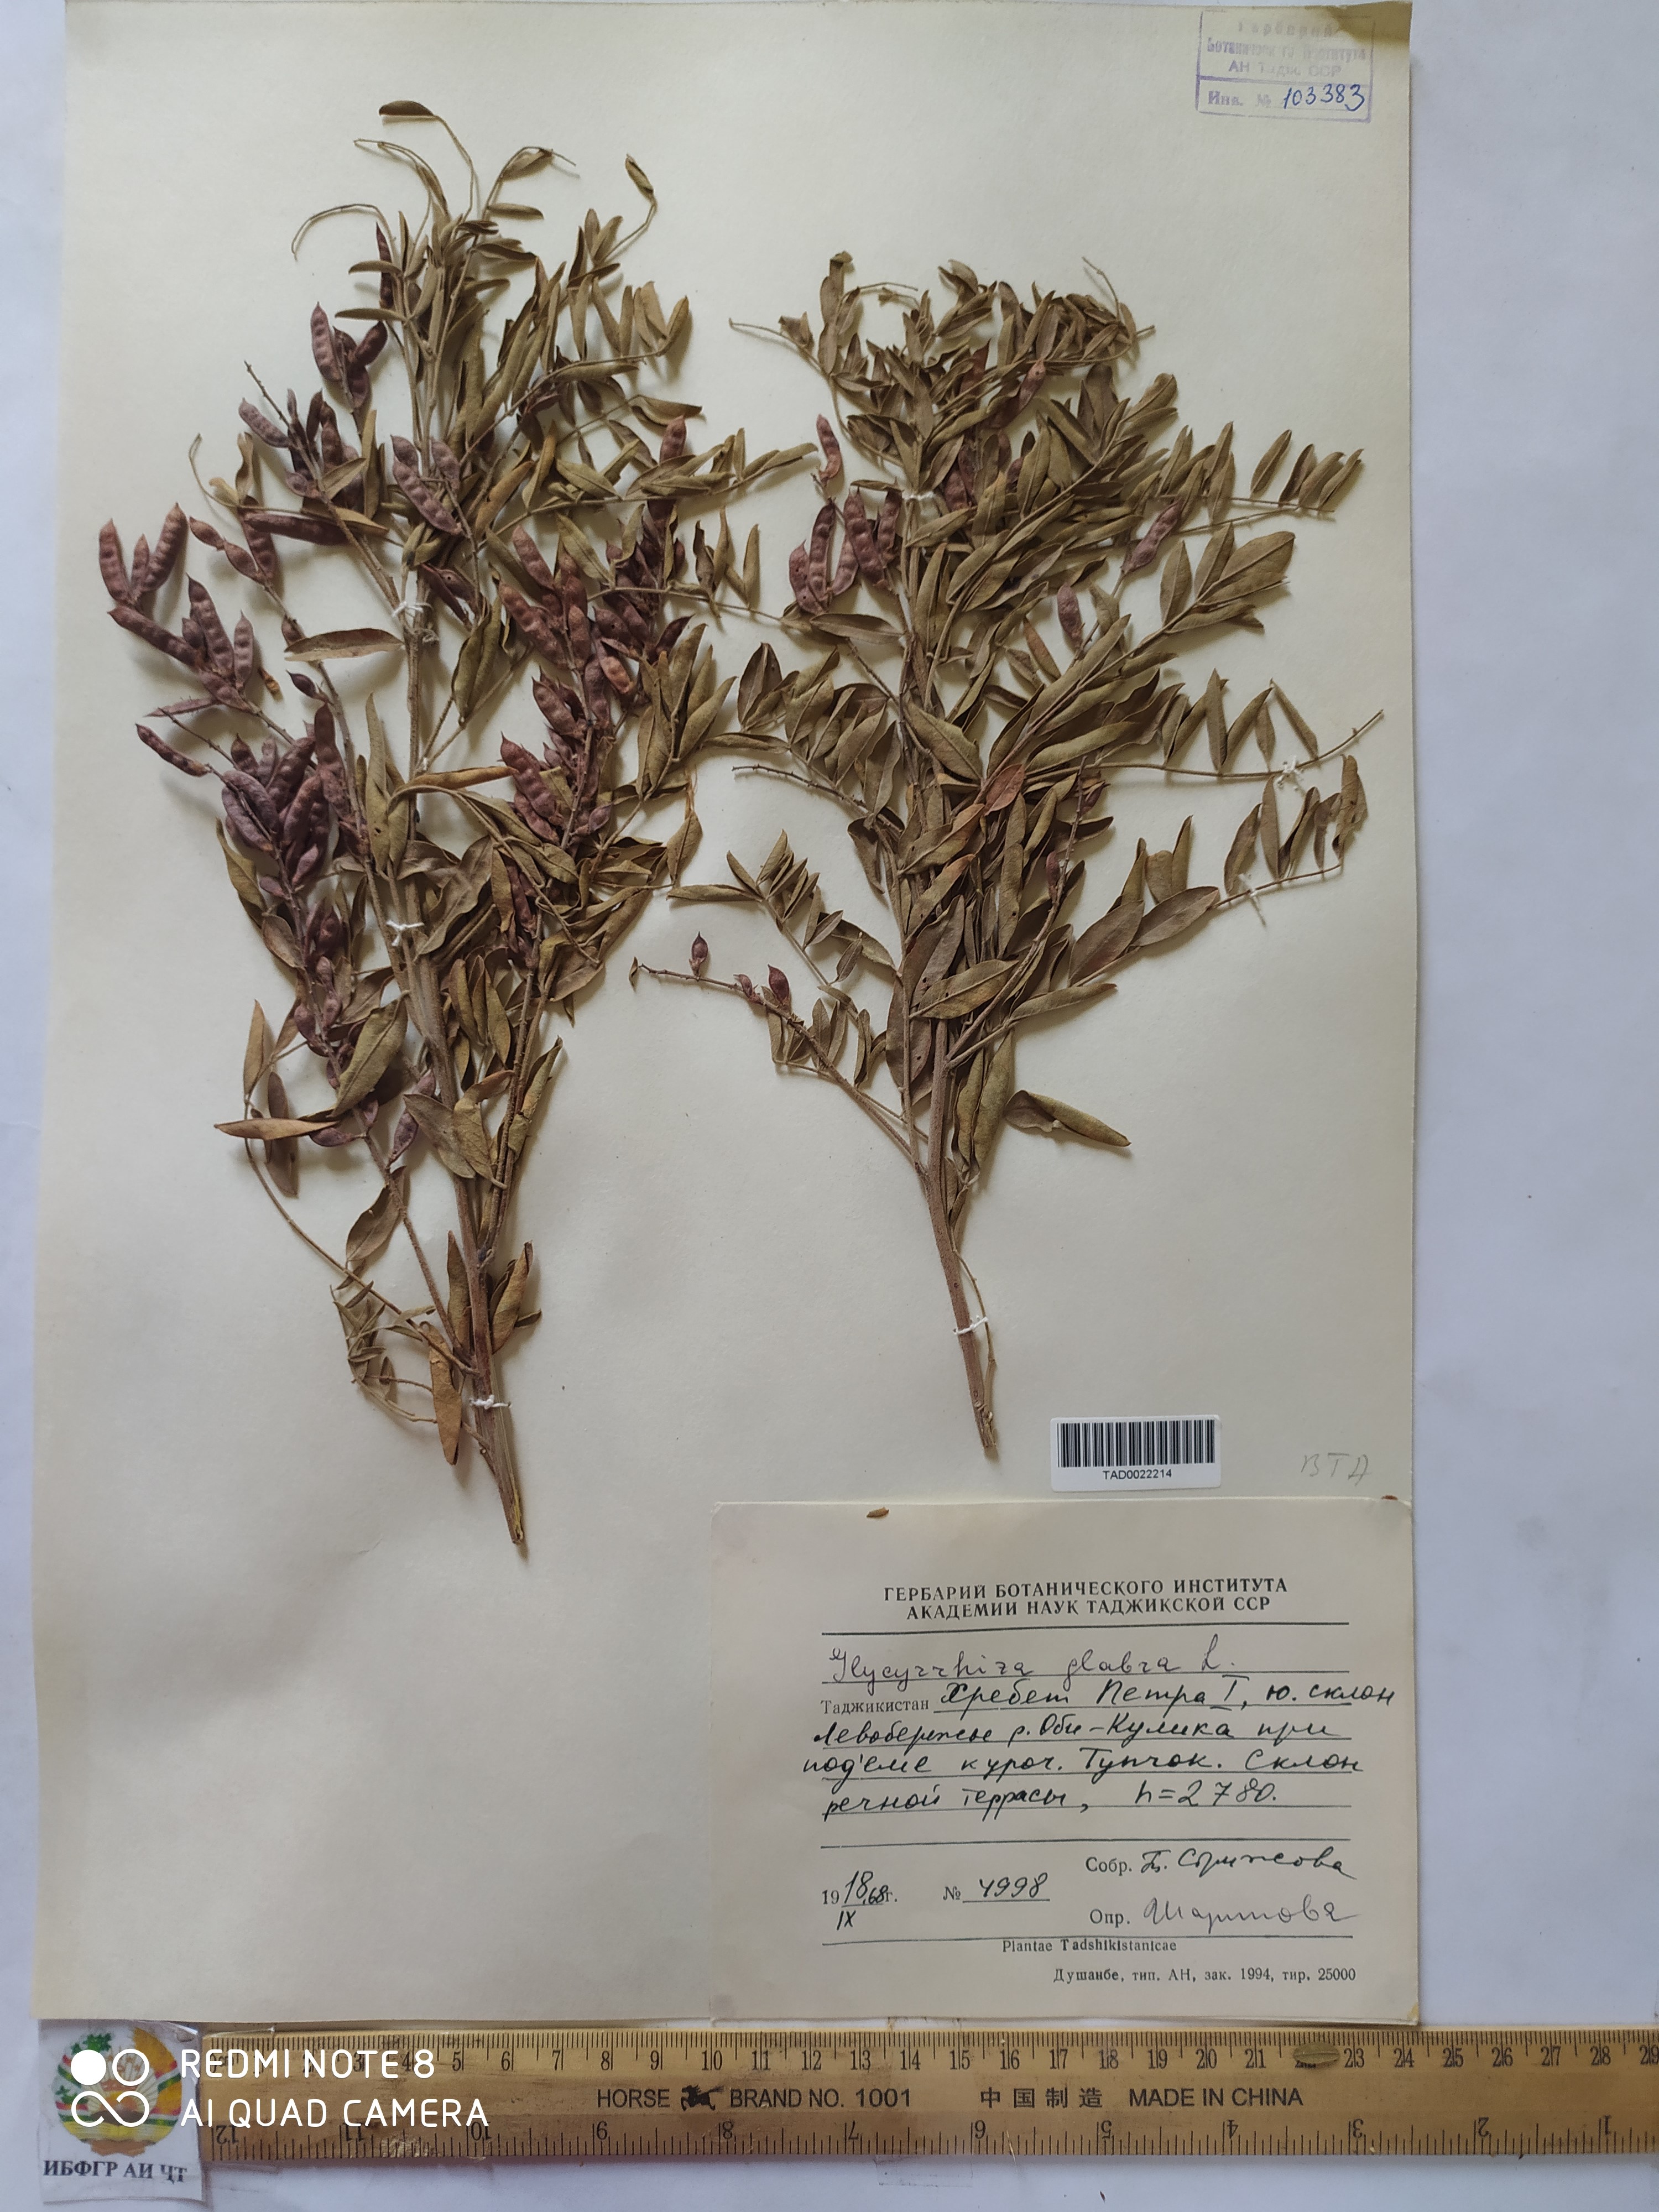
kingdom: Plantae
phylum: Tracheophyta
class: Magnoliopsida
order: Fabales
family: Fabaceae
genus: Glycyrrhiza
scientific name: Glycyrrhiza glabra
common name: Liquorice
